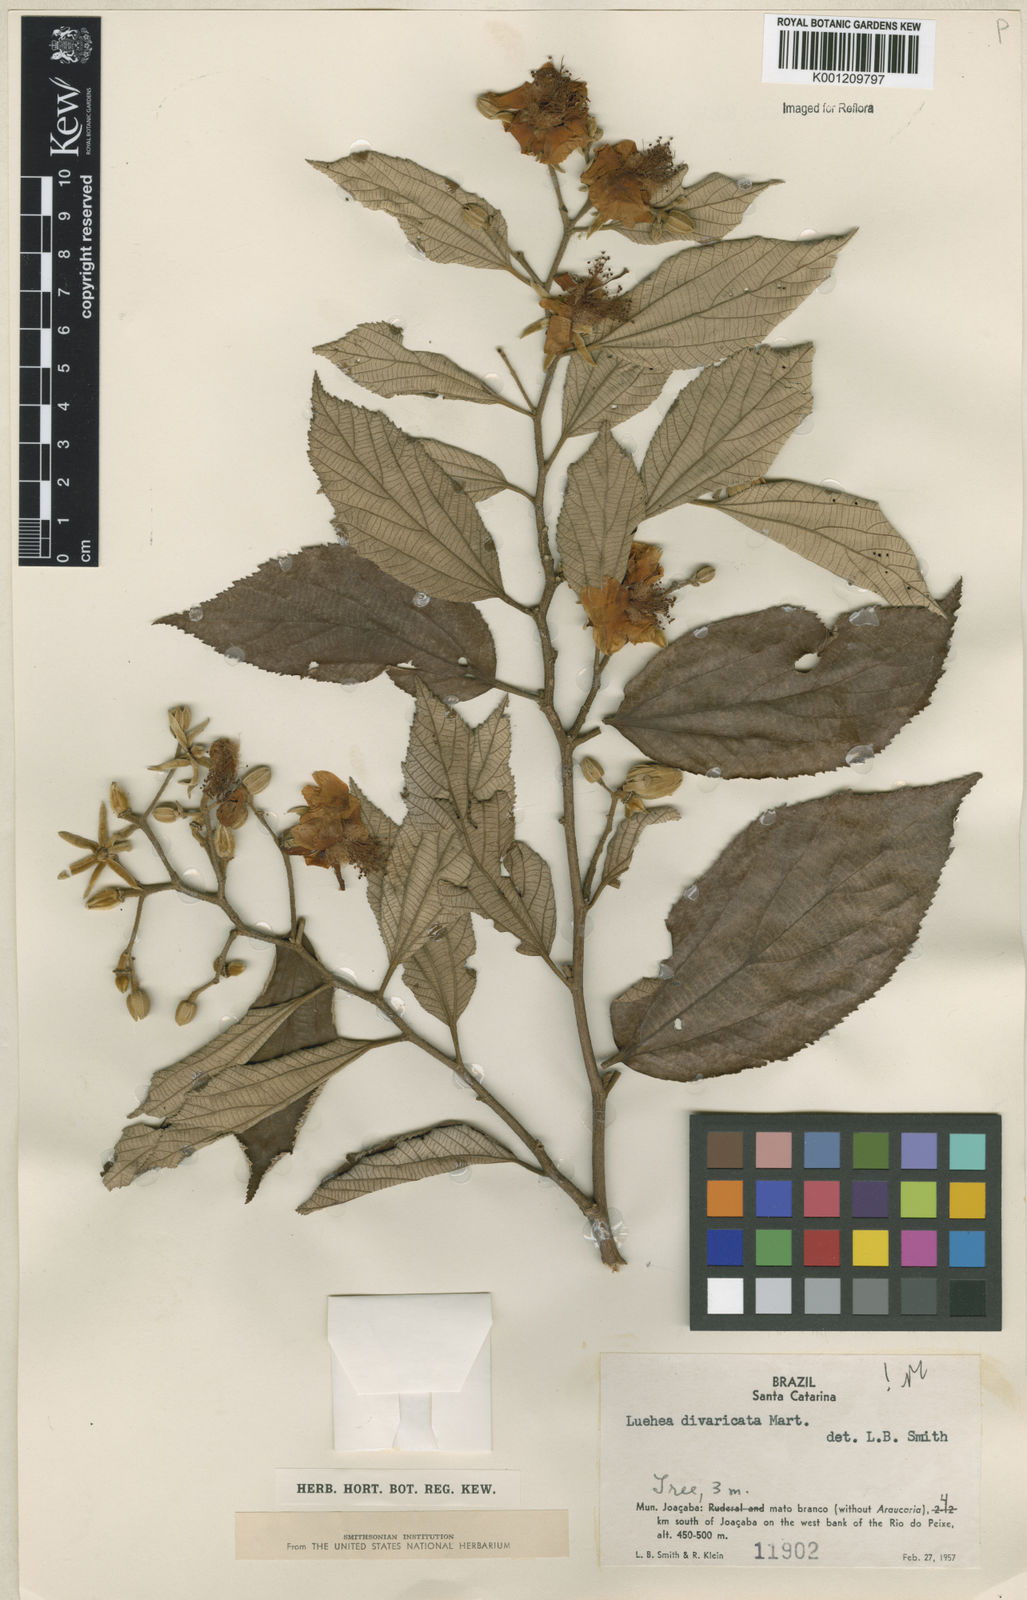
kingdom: Plantae
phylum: Tracheophyta
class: Magnoliopsida
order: Malvales
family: Malvaceae
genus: Luehea
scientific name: Luehea divaricata
